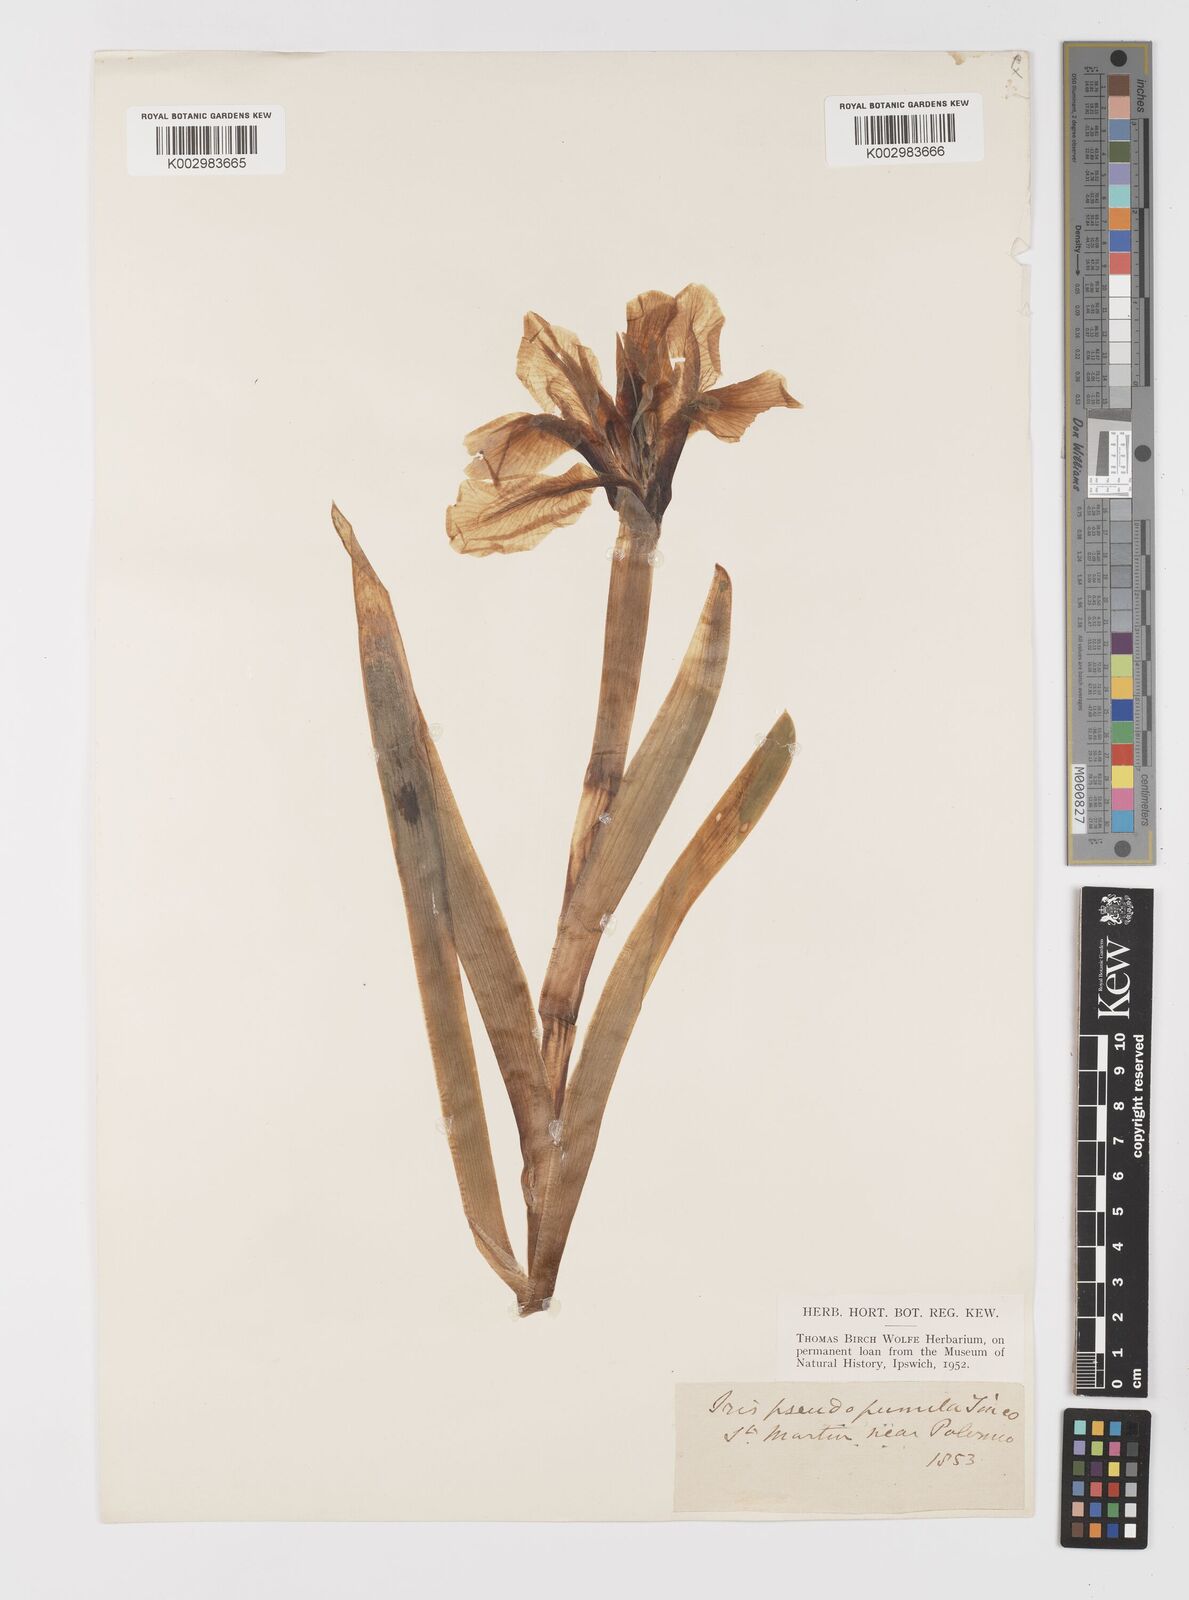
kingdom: Plantae
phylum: Tracheophyta
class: Liliopsida
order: Asparagales
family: Iridaceae
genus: Iris
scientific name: Iris pseudopumila
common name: Southern dwarf iris
